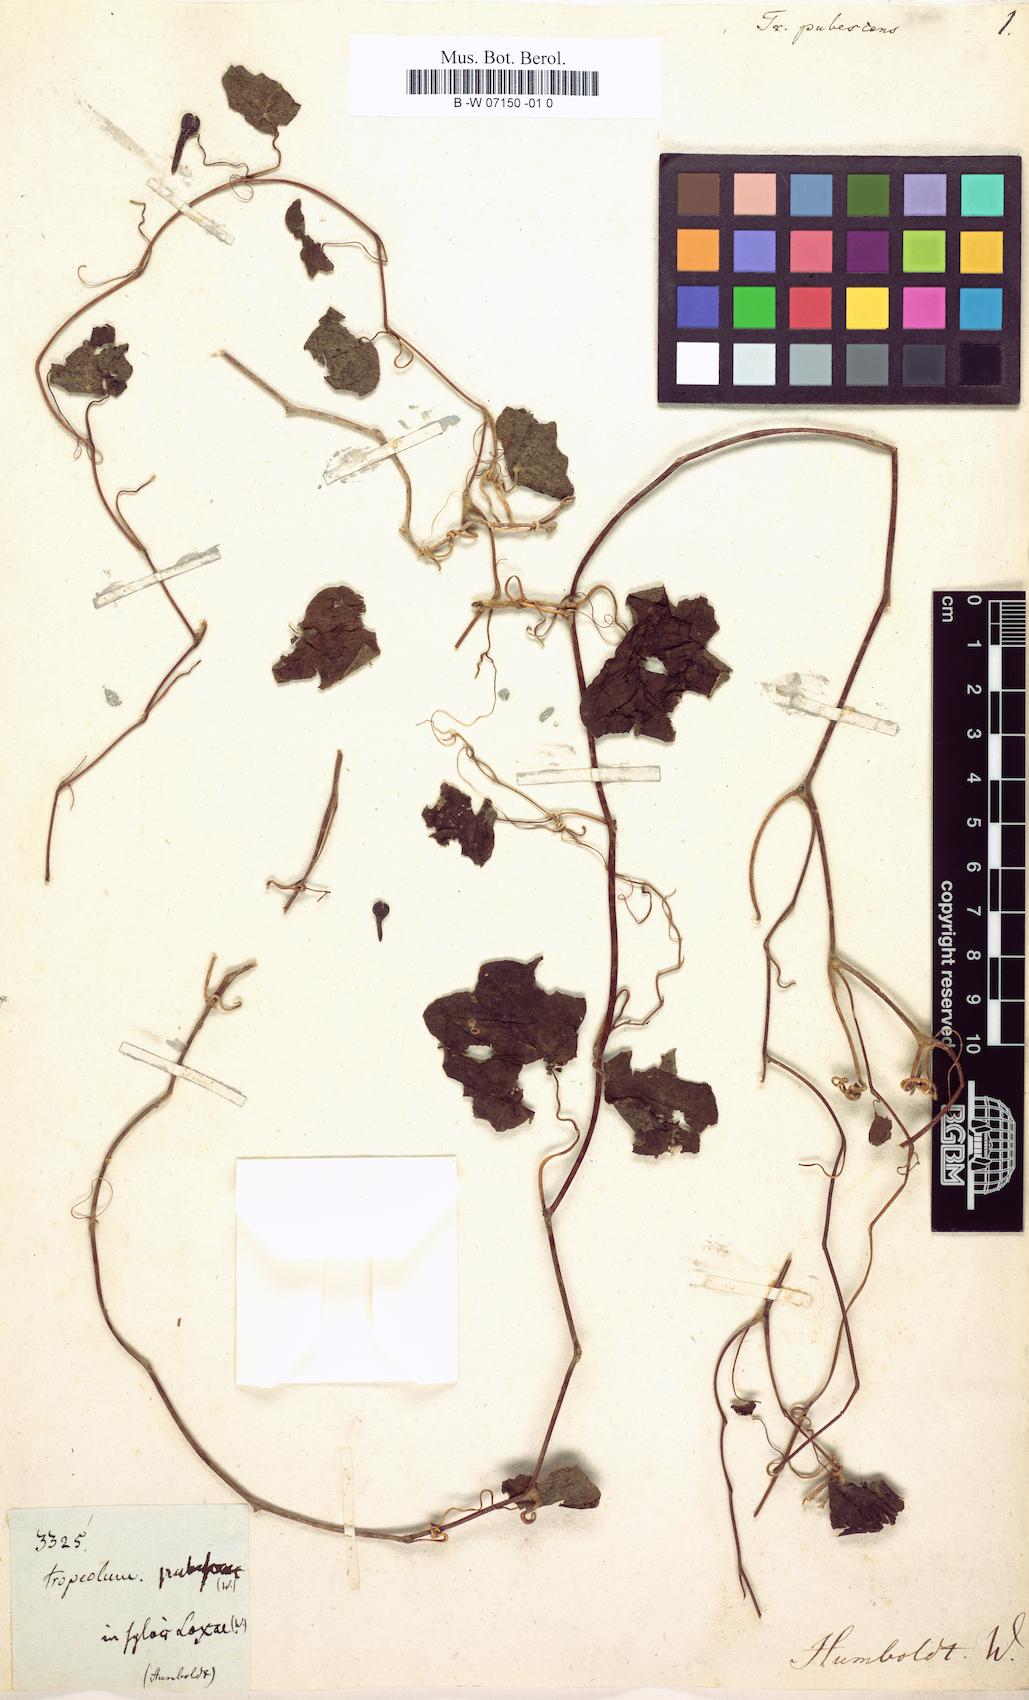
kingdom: Plantae
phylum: Tracheophyta
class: Magnoliopsida
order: Brassicales
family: Tropaeolaceae
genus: Tropaeolum
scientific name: Tropaeolum pubescens
